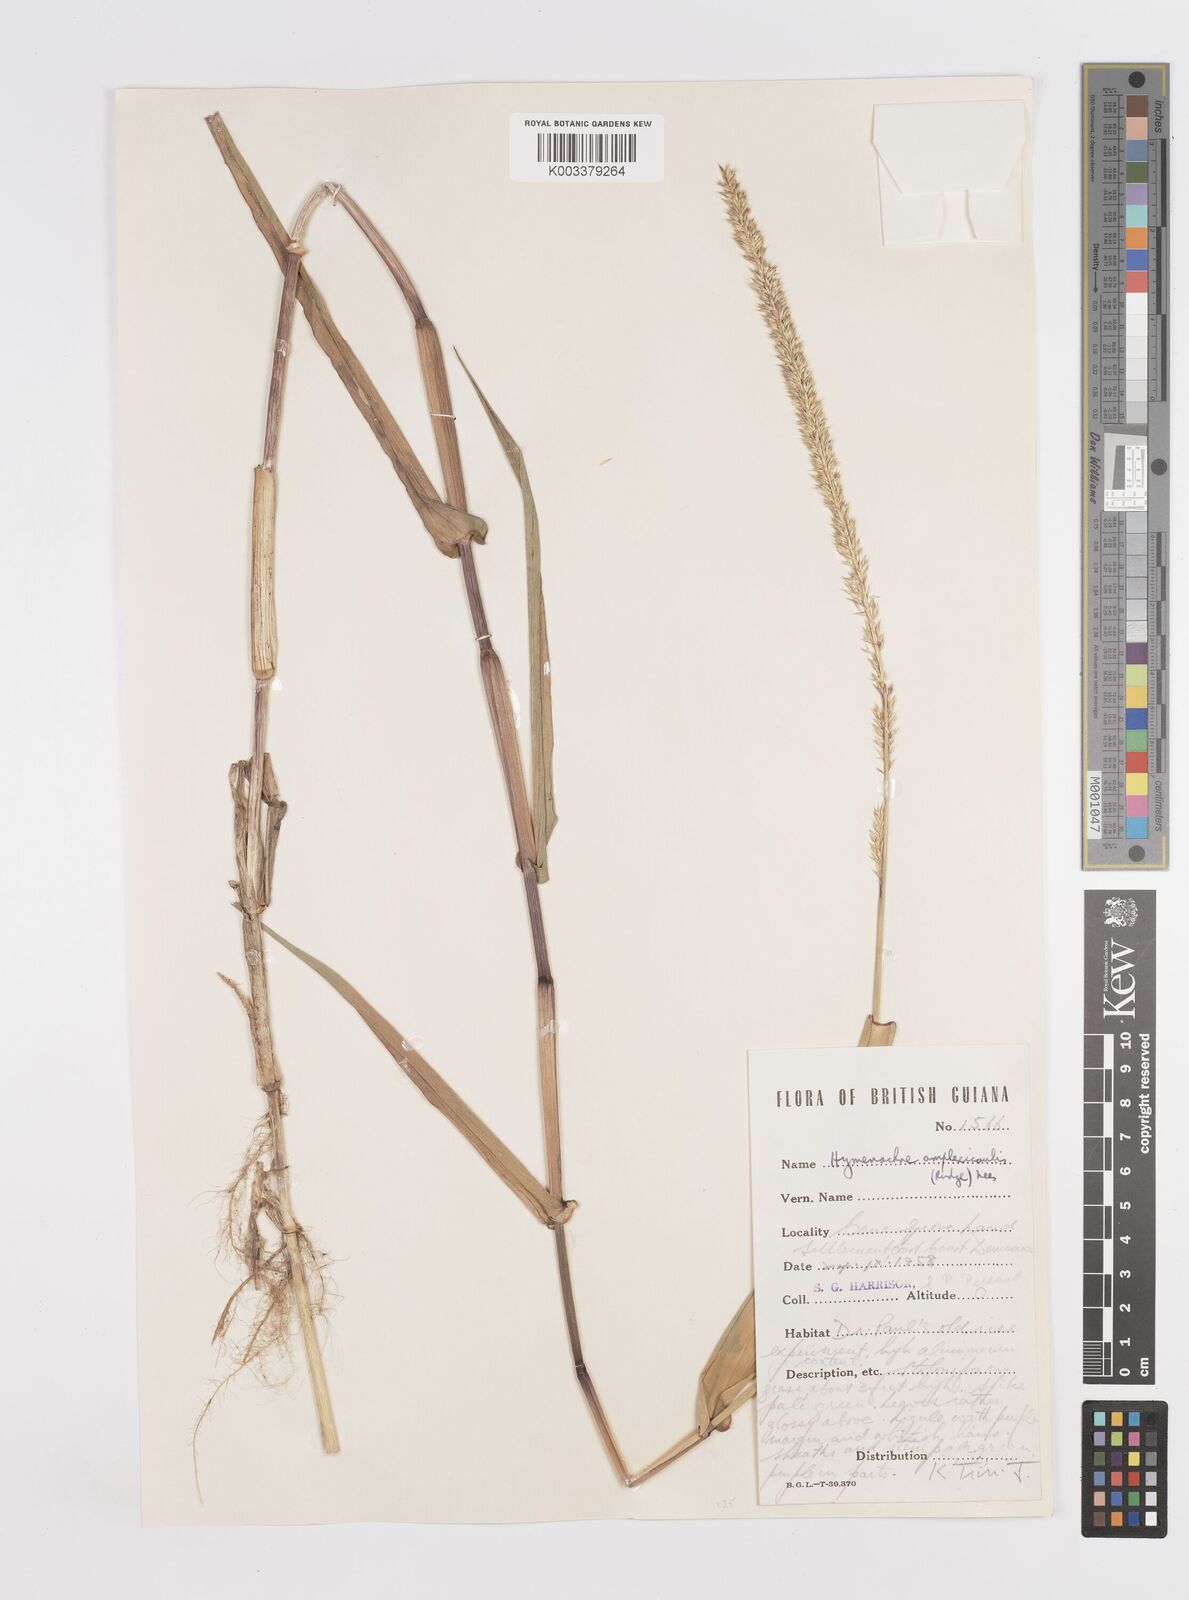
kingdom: Plantae
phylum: Tracheophyta
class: Liliopsida
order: Poales
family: Poaceae
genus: Hymenachne
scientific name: Hymenachne amplexicaulis
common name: Olive hymenachne
